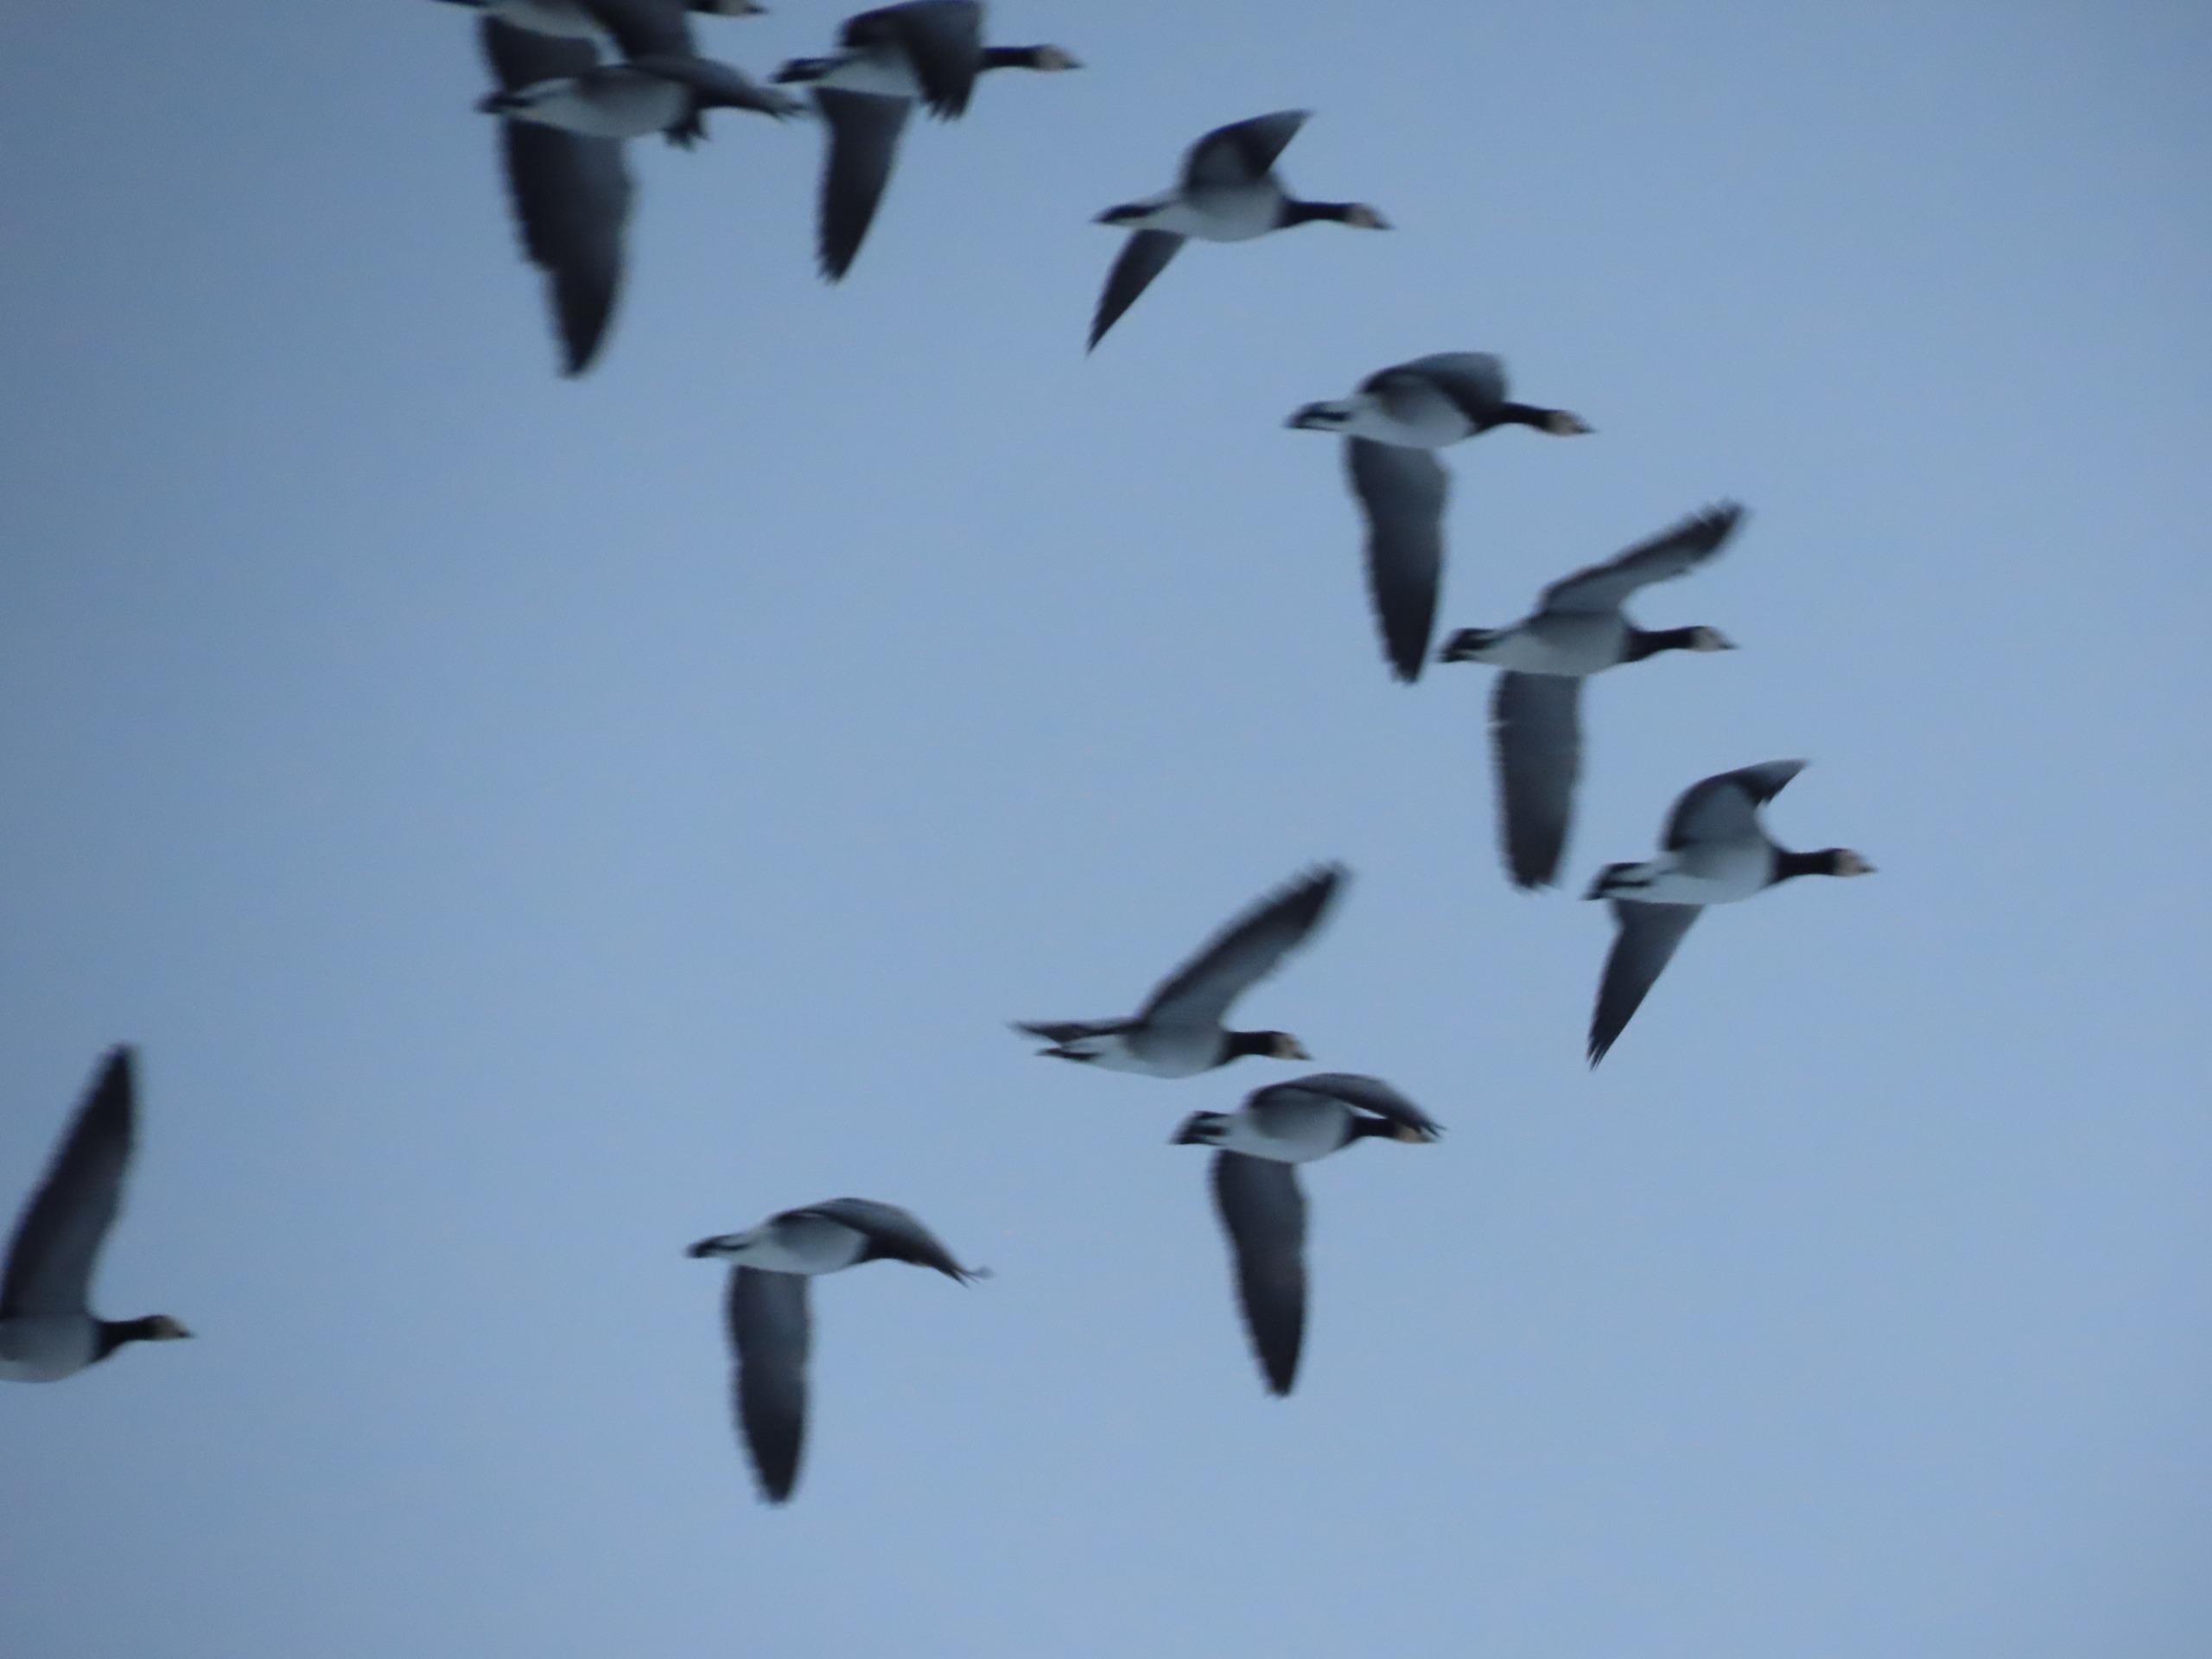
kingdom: Animalia
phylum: Chordata
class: Aves
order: Anseriformes
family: Anatidae
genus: Branta
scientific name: Branta leucopsis
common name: Bramgås
